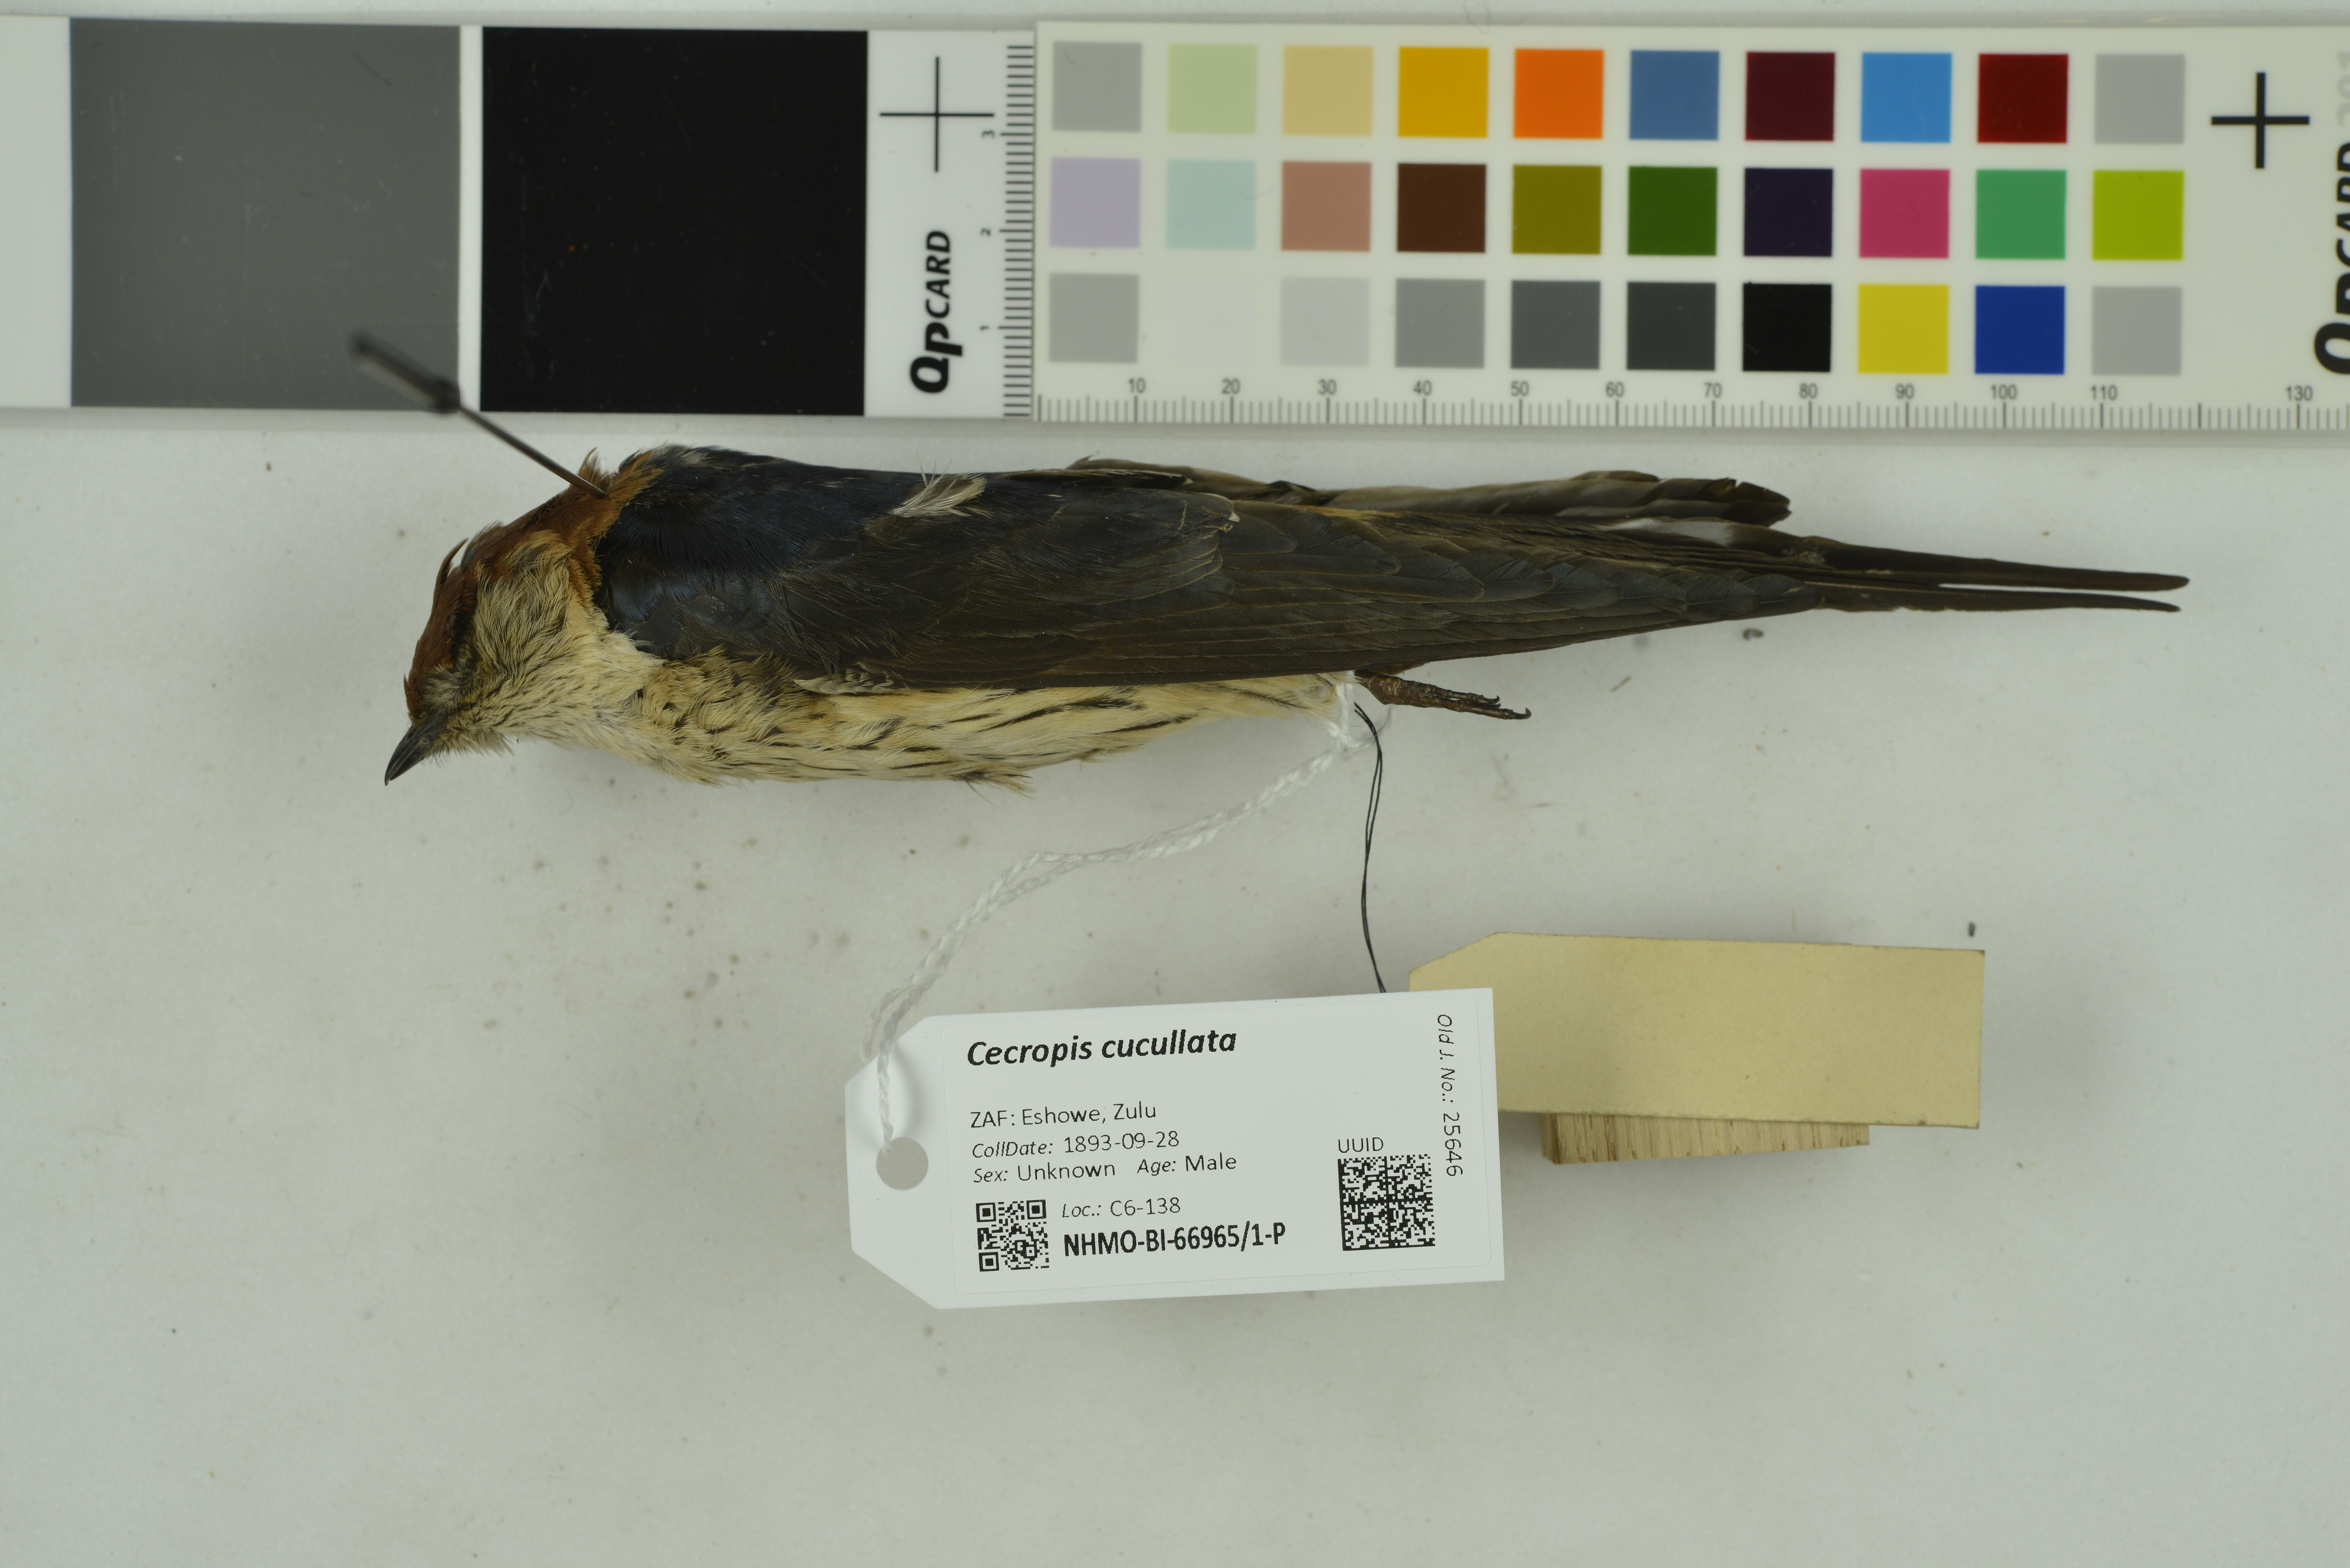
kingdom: Animalia
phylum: Chordata
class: Aves
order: Passeriformes
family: Hirundinidae
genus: Cecropis
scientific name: Cecropis cucullata
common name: Greater striped-swallow
